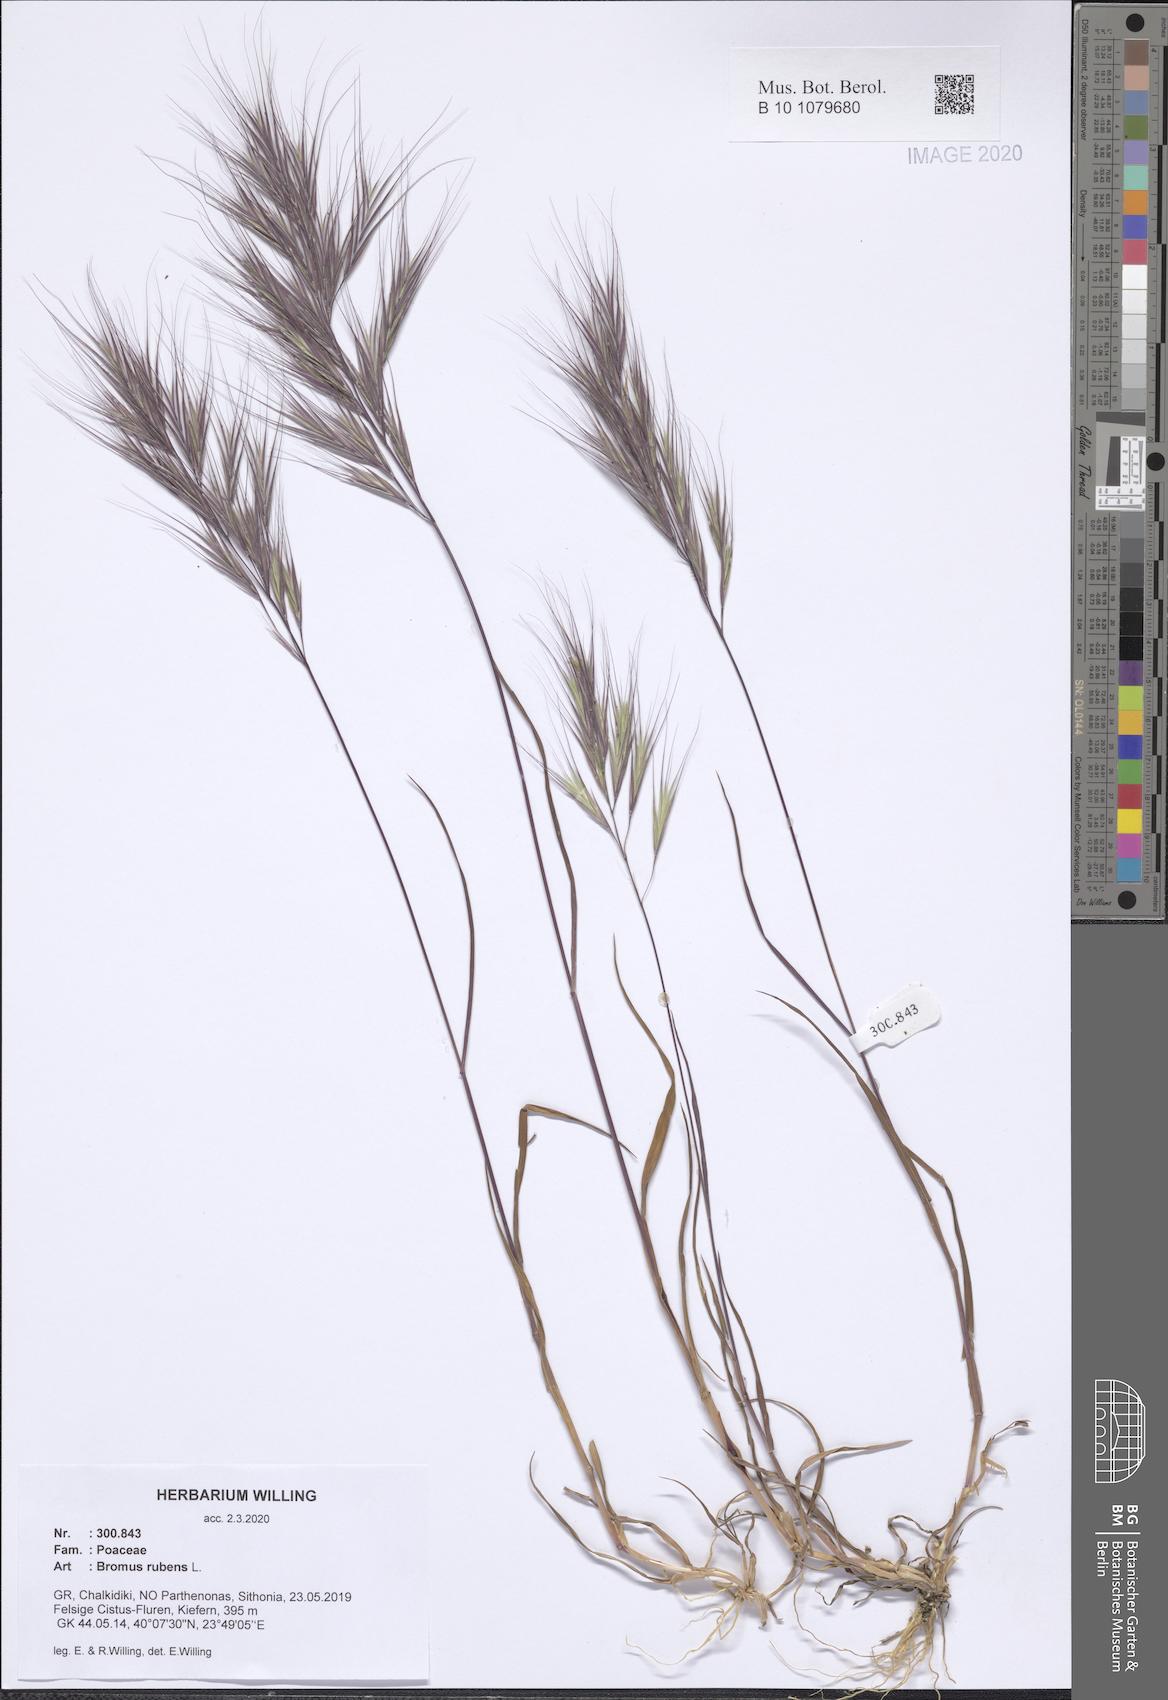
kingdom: Plantae
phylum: Tracheophyta
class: Liliopsida
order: Poales
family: Poaceae
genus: Bromus
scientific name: Bromus rubens
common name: Red brome
